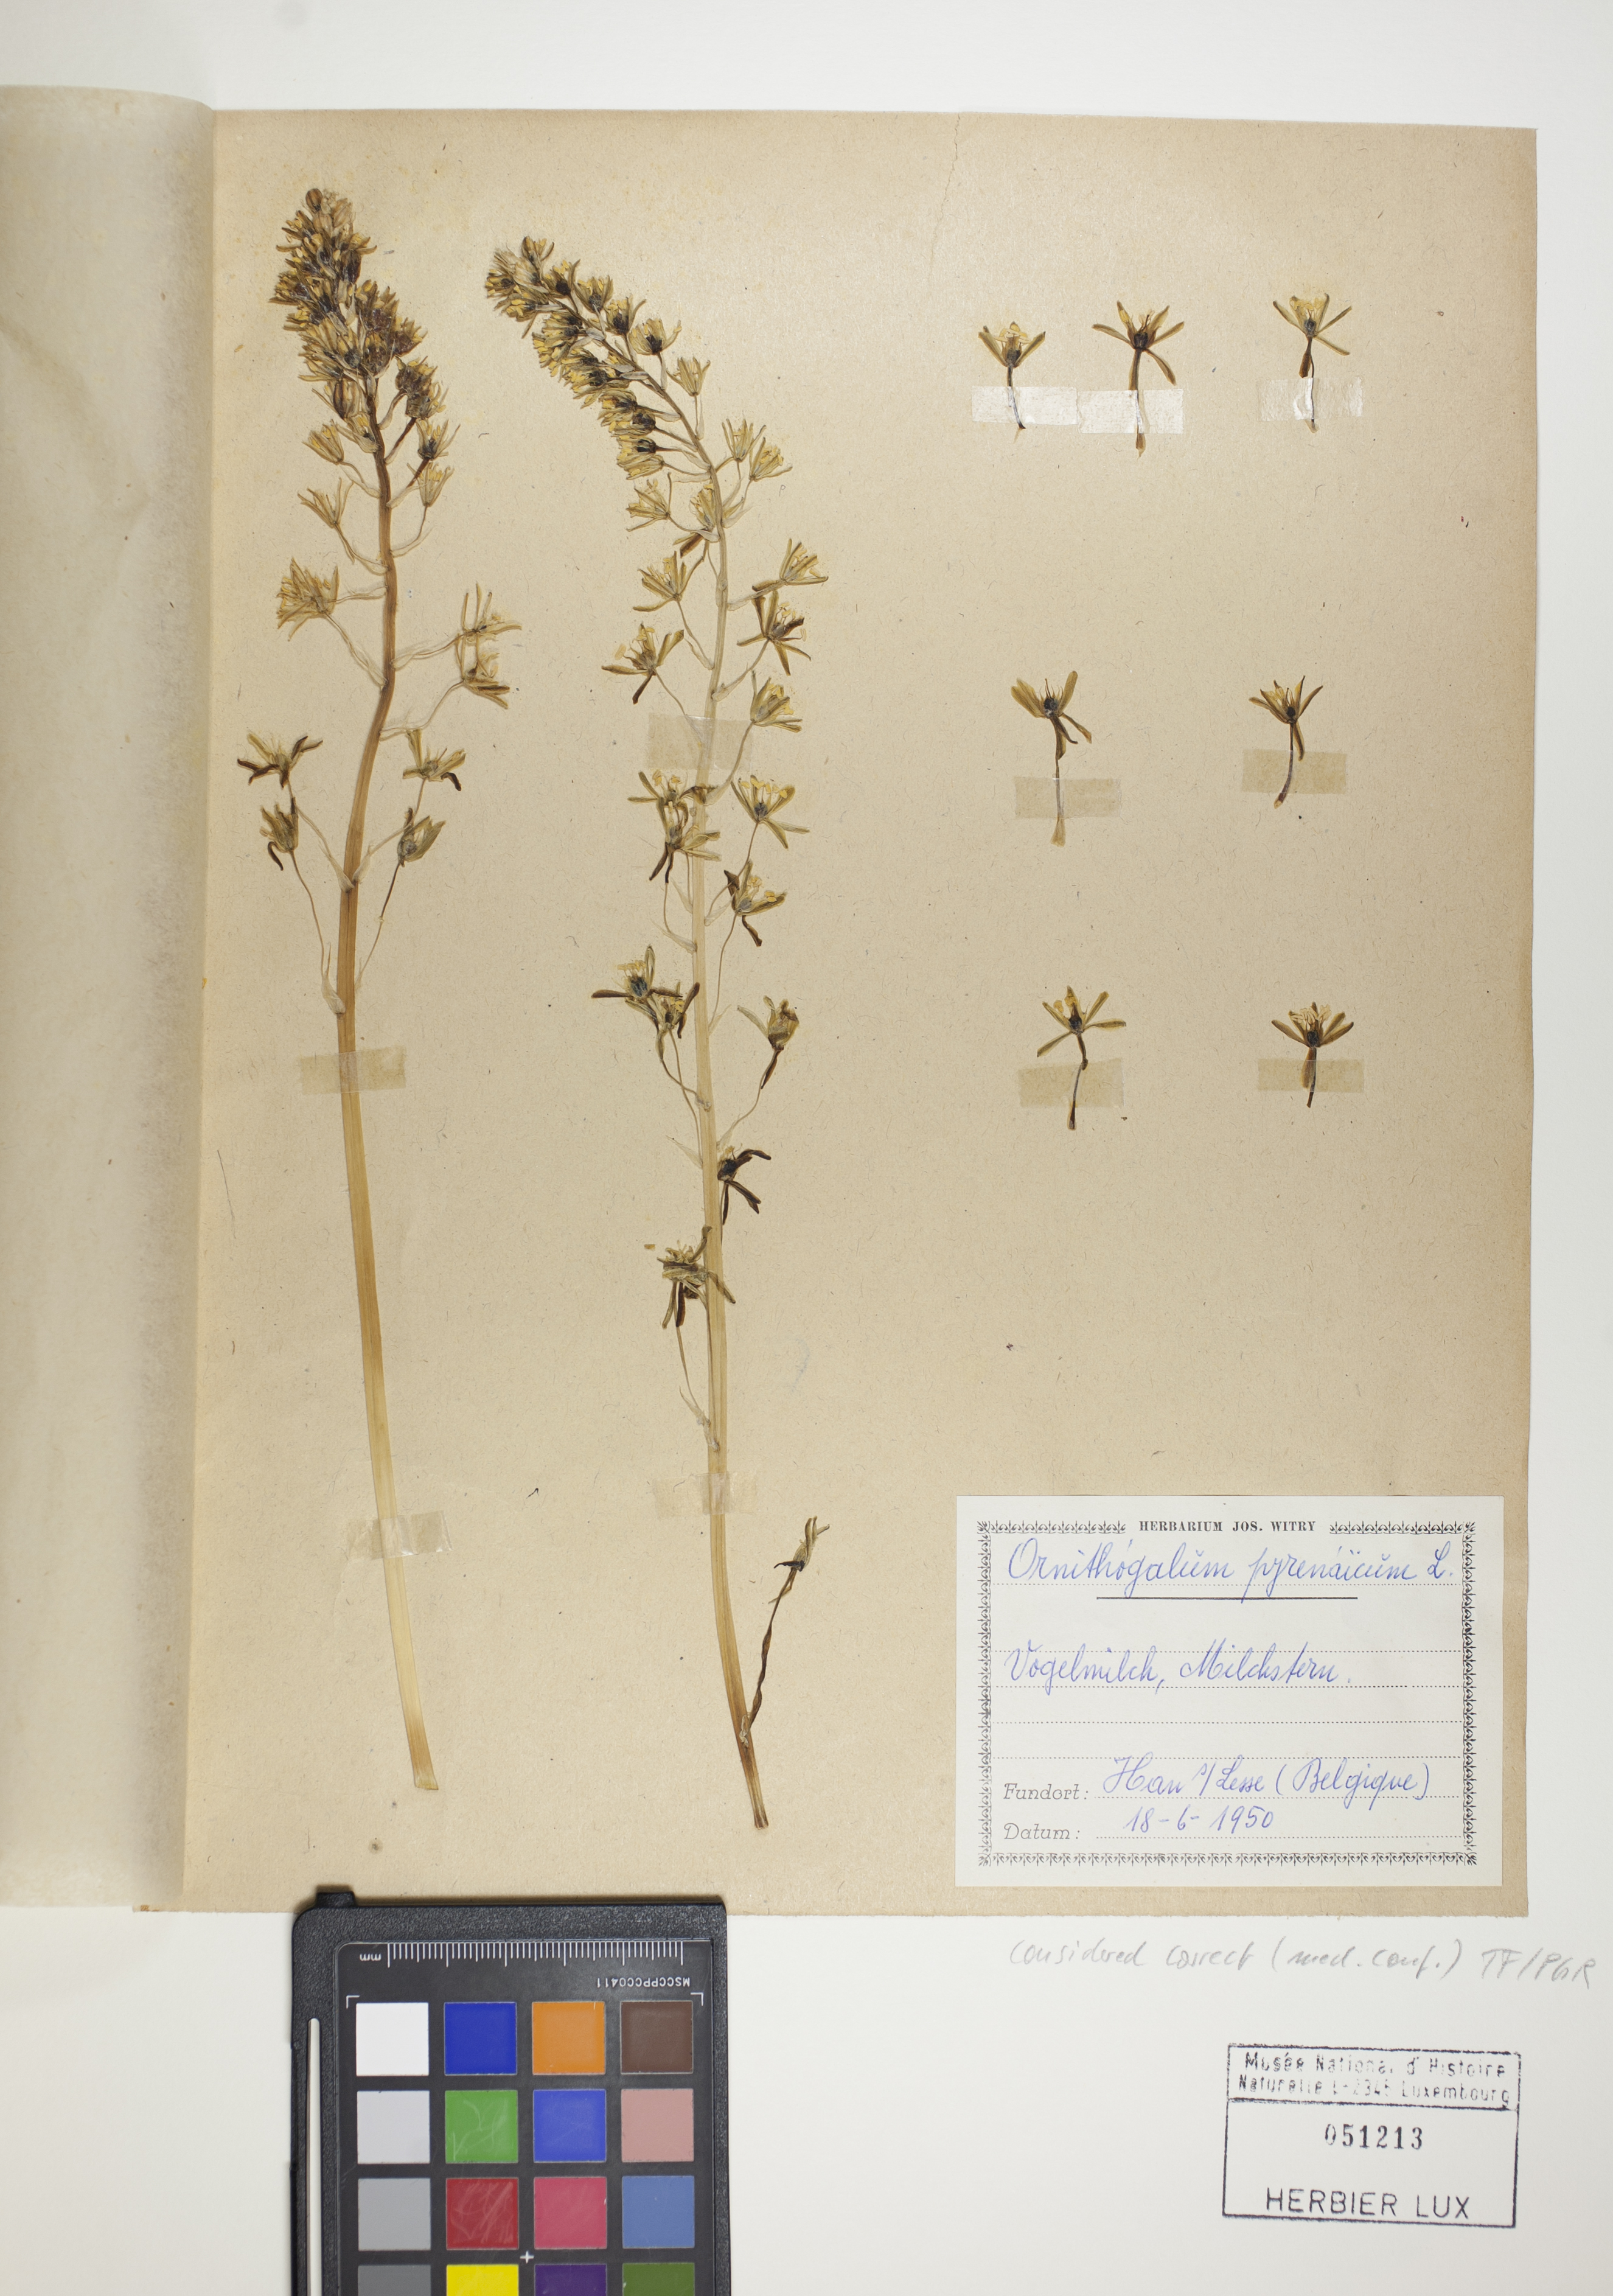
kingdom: Plantae
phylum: Tracheophyta
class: Liliopsida
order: Asparagales
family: Asparagaceae
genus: Ornithogalum
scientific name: Ornithogalum pyrenaicum
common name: Spiked star-of-bethlehem
